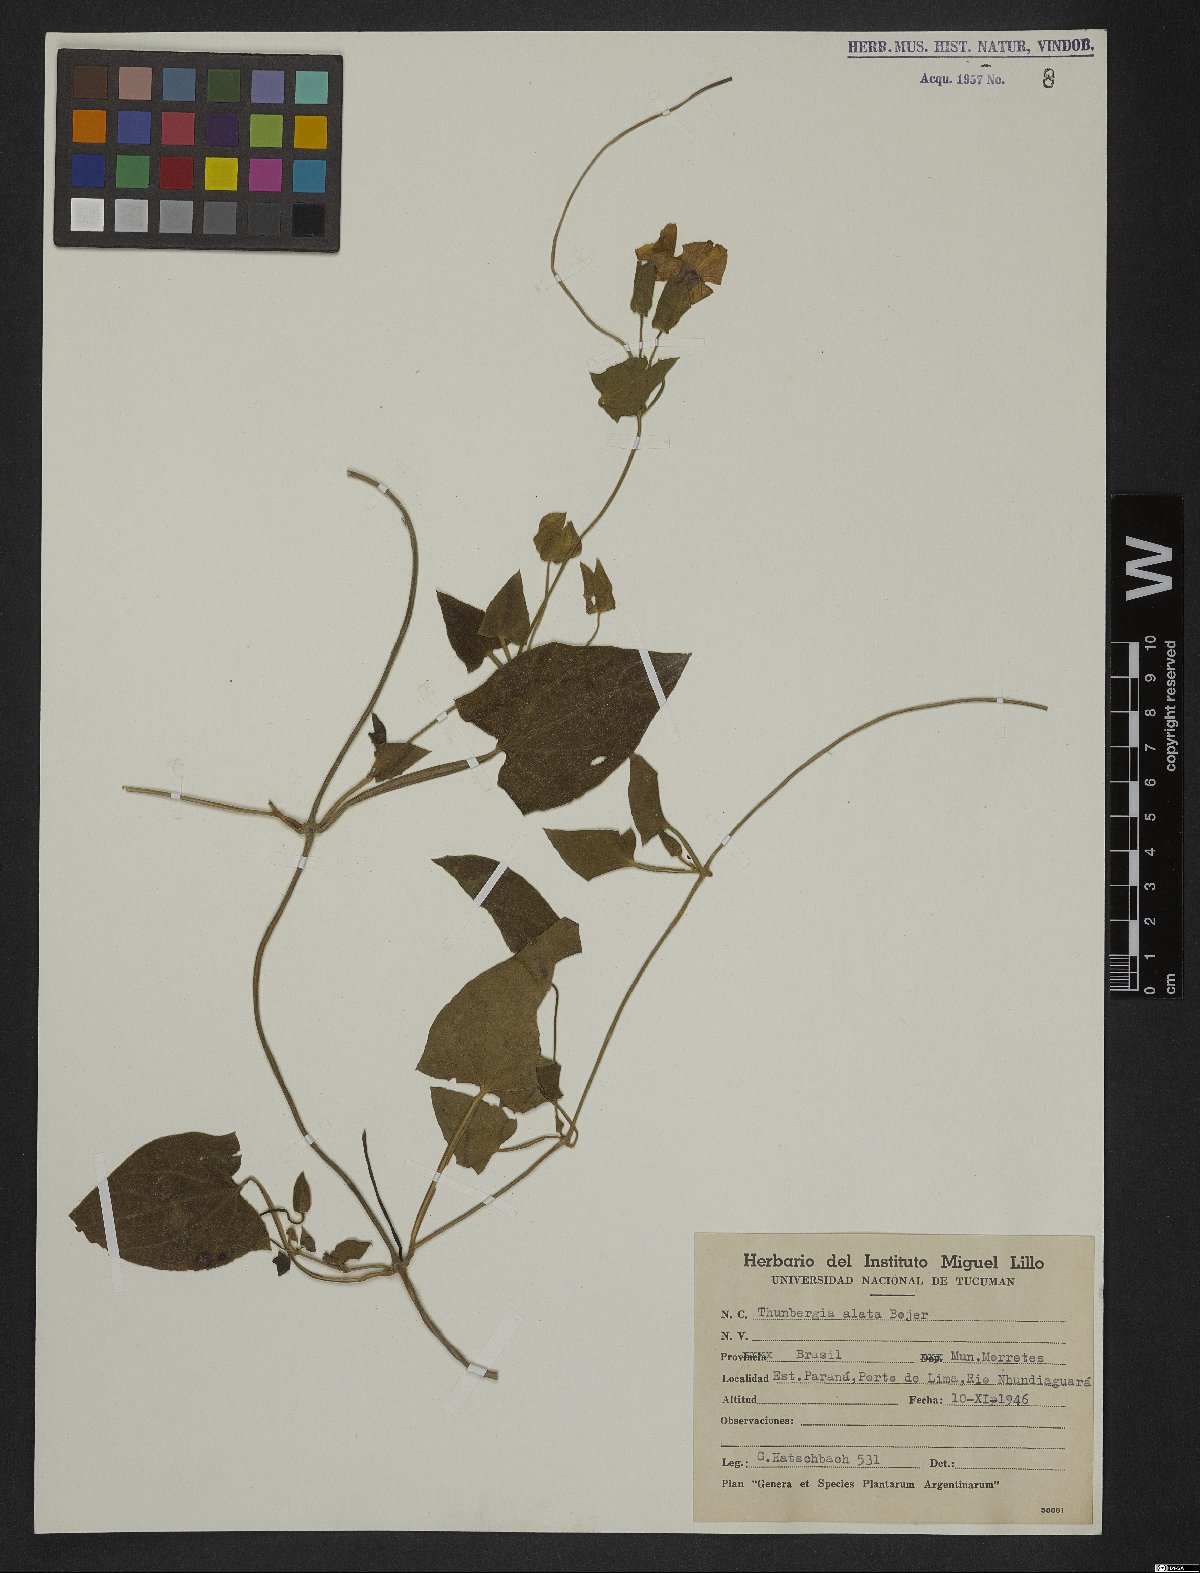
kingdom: Plantae
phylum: Tracheophyta
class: Magnoliopsida
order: Lamiales
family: Acanthaceae
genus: Thunbergia
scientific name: Thunbergia alata
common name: Blackeyed susan vine
